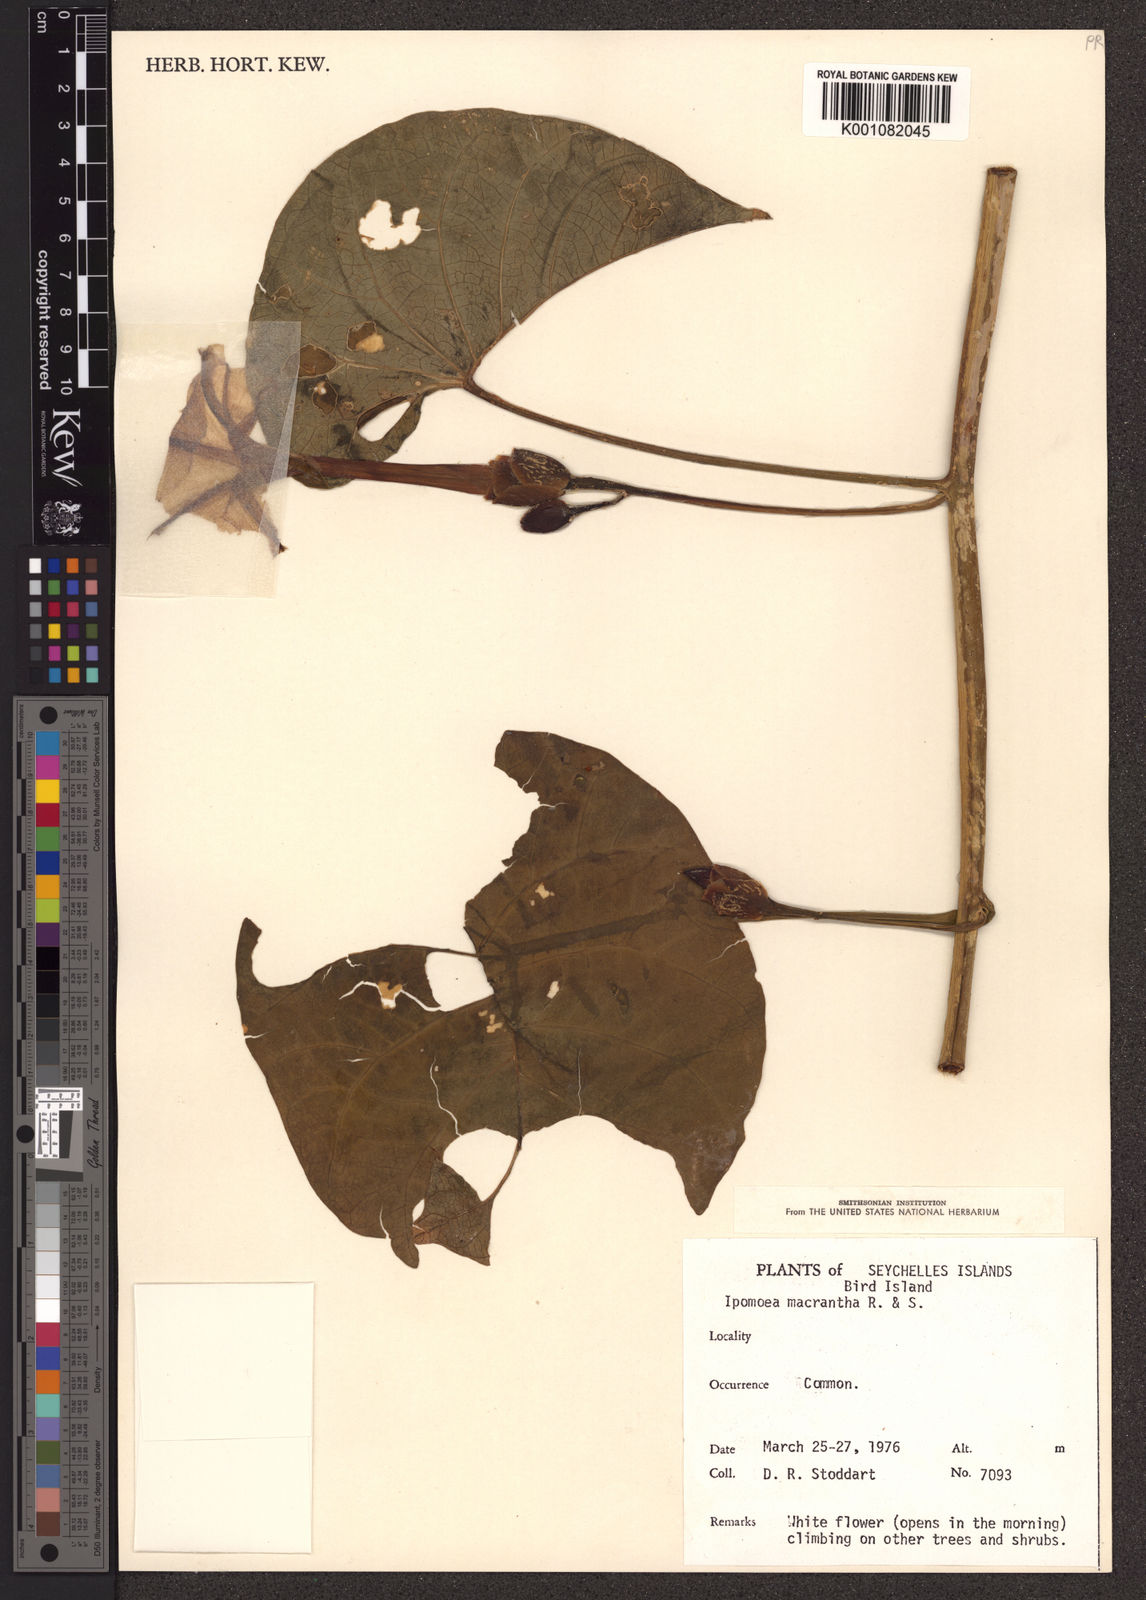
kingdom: Plantae
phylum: Tracheophyta
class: Magnoliopsida
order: Solanales
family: Convolvulaceae
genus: Ipomoea
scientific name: Ipomoea violacea
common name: Beach moonflower
